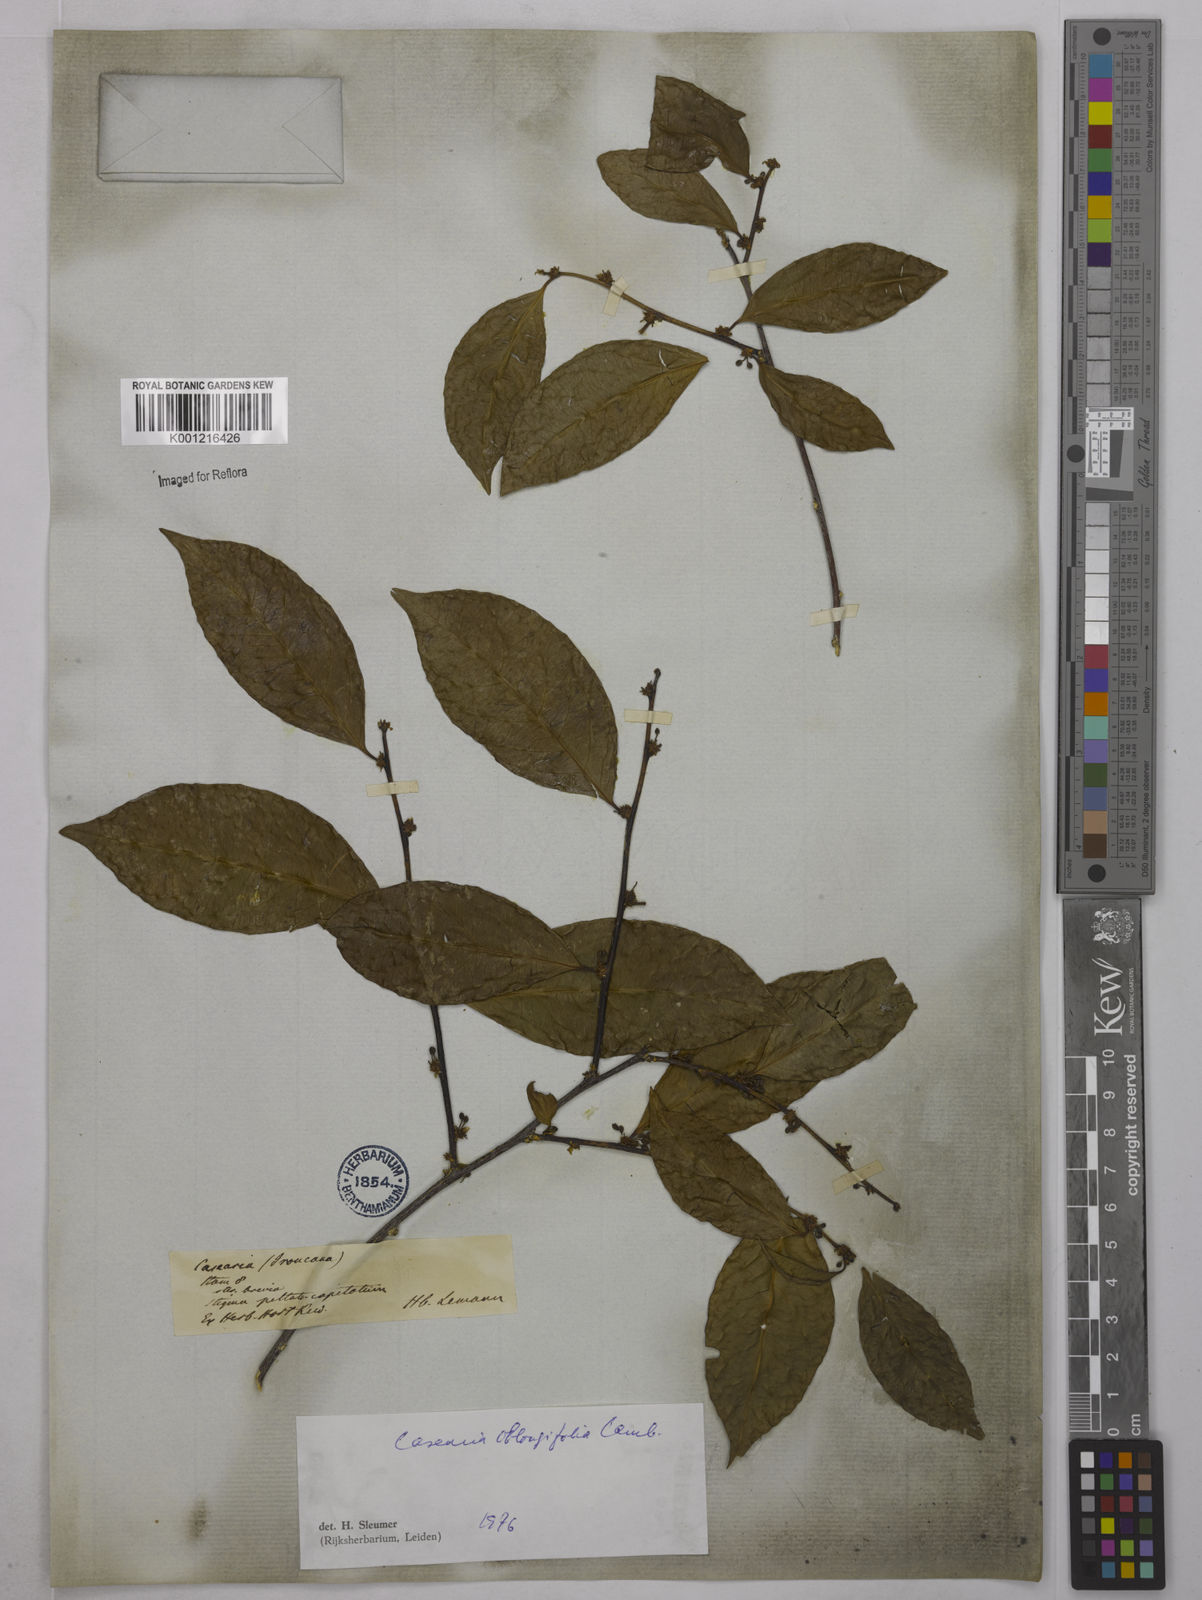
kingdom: Plantae
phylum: Tracheophyta
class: Magnoliopsida
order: Malpighiales
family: Salicaceae
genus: Casearia
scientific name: Casearia oblongifolia
